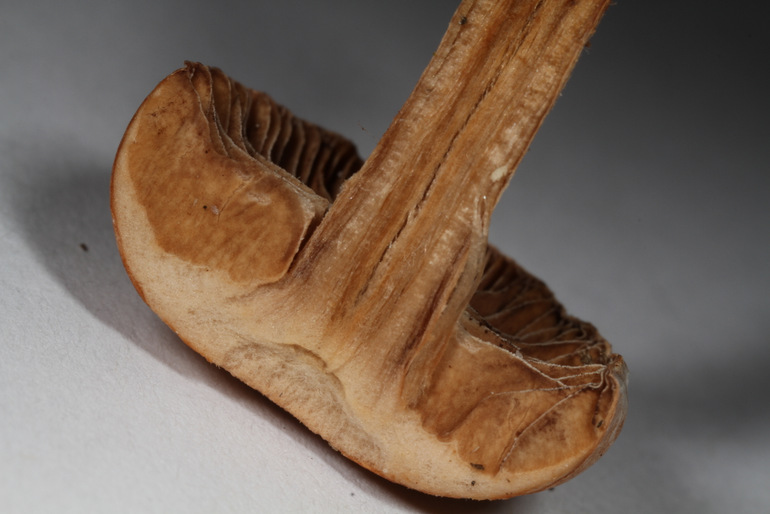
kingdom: Fungi
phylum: Basidiomycota
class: Agaricomycetes
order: Agaricales
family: Strophariaceae
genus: Deconica
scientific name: Deconica phyllogena
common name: spættet stråhat
